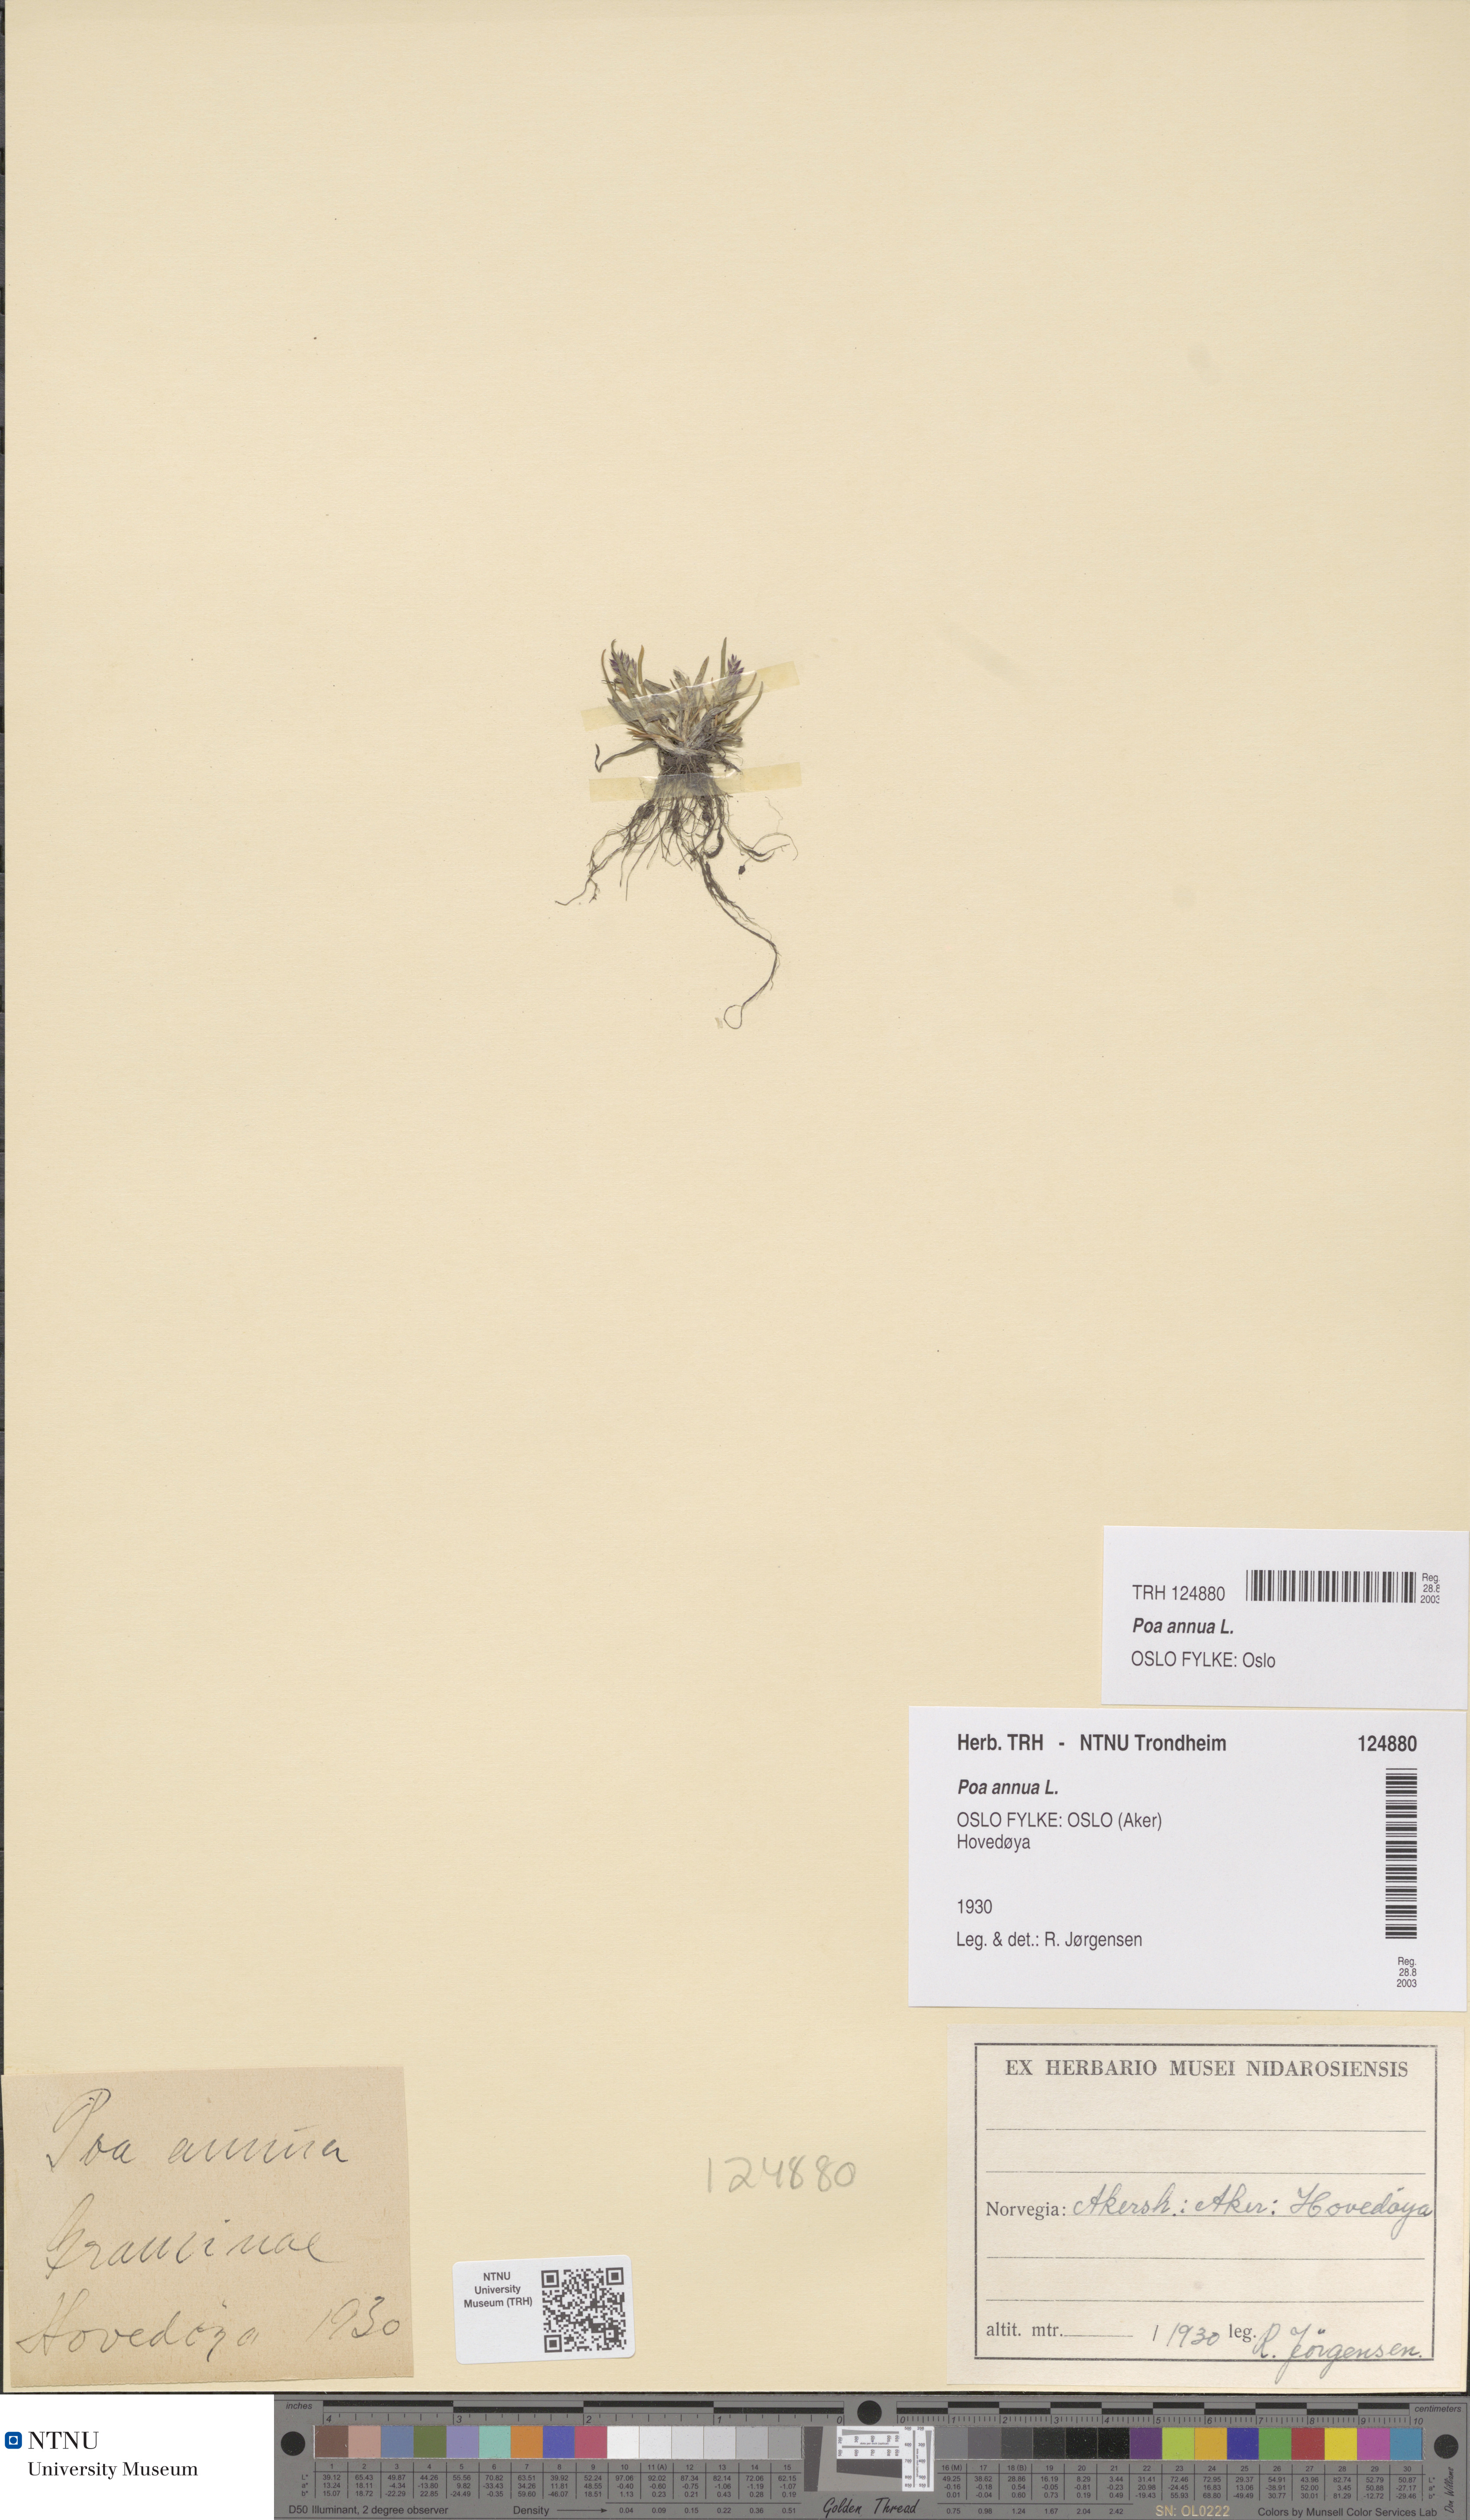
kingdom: Plantae
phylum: Tracheophyta
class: Liliopsida
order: Poales
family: Poaceae
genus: Poa
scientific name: Poa annua
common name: Annual bluegrass
